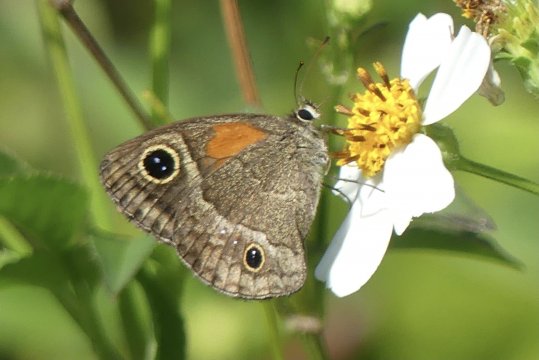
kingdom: Animalia
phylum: Arthropoda
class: Insecta
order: Lepidoptera
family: Nymphalidae
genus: Calisto
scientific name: Calisto obscura
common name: Obscure Calisto
